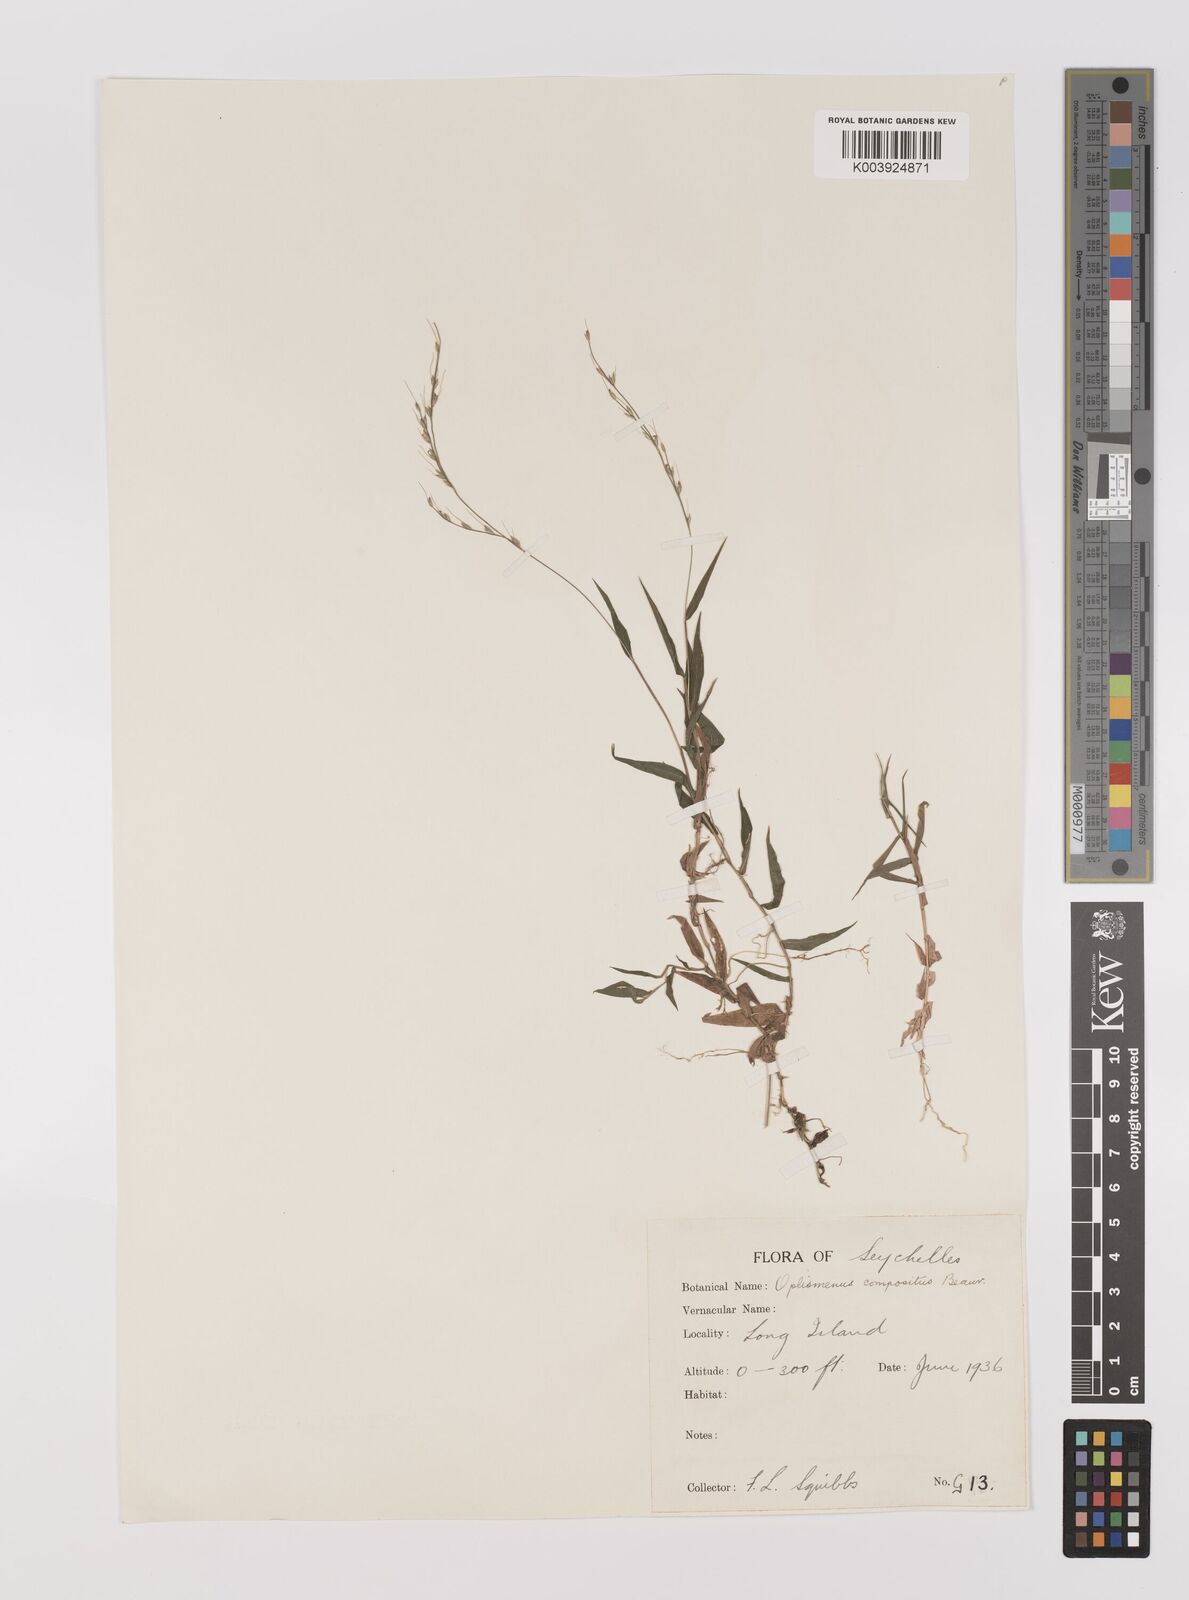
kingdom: Plantae
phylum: Tracheophyta
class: Liliopsida
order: Poales
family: Poaceae
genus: Oplismenus
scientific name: Oplismenus compositus
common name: Running mountain grass
